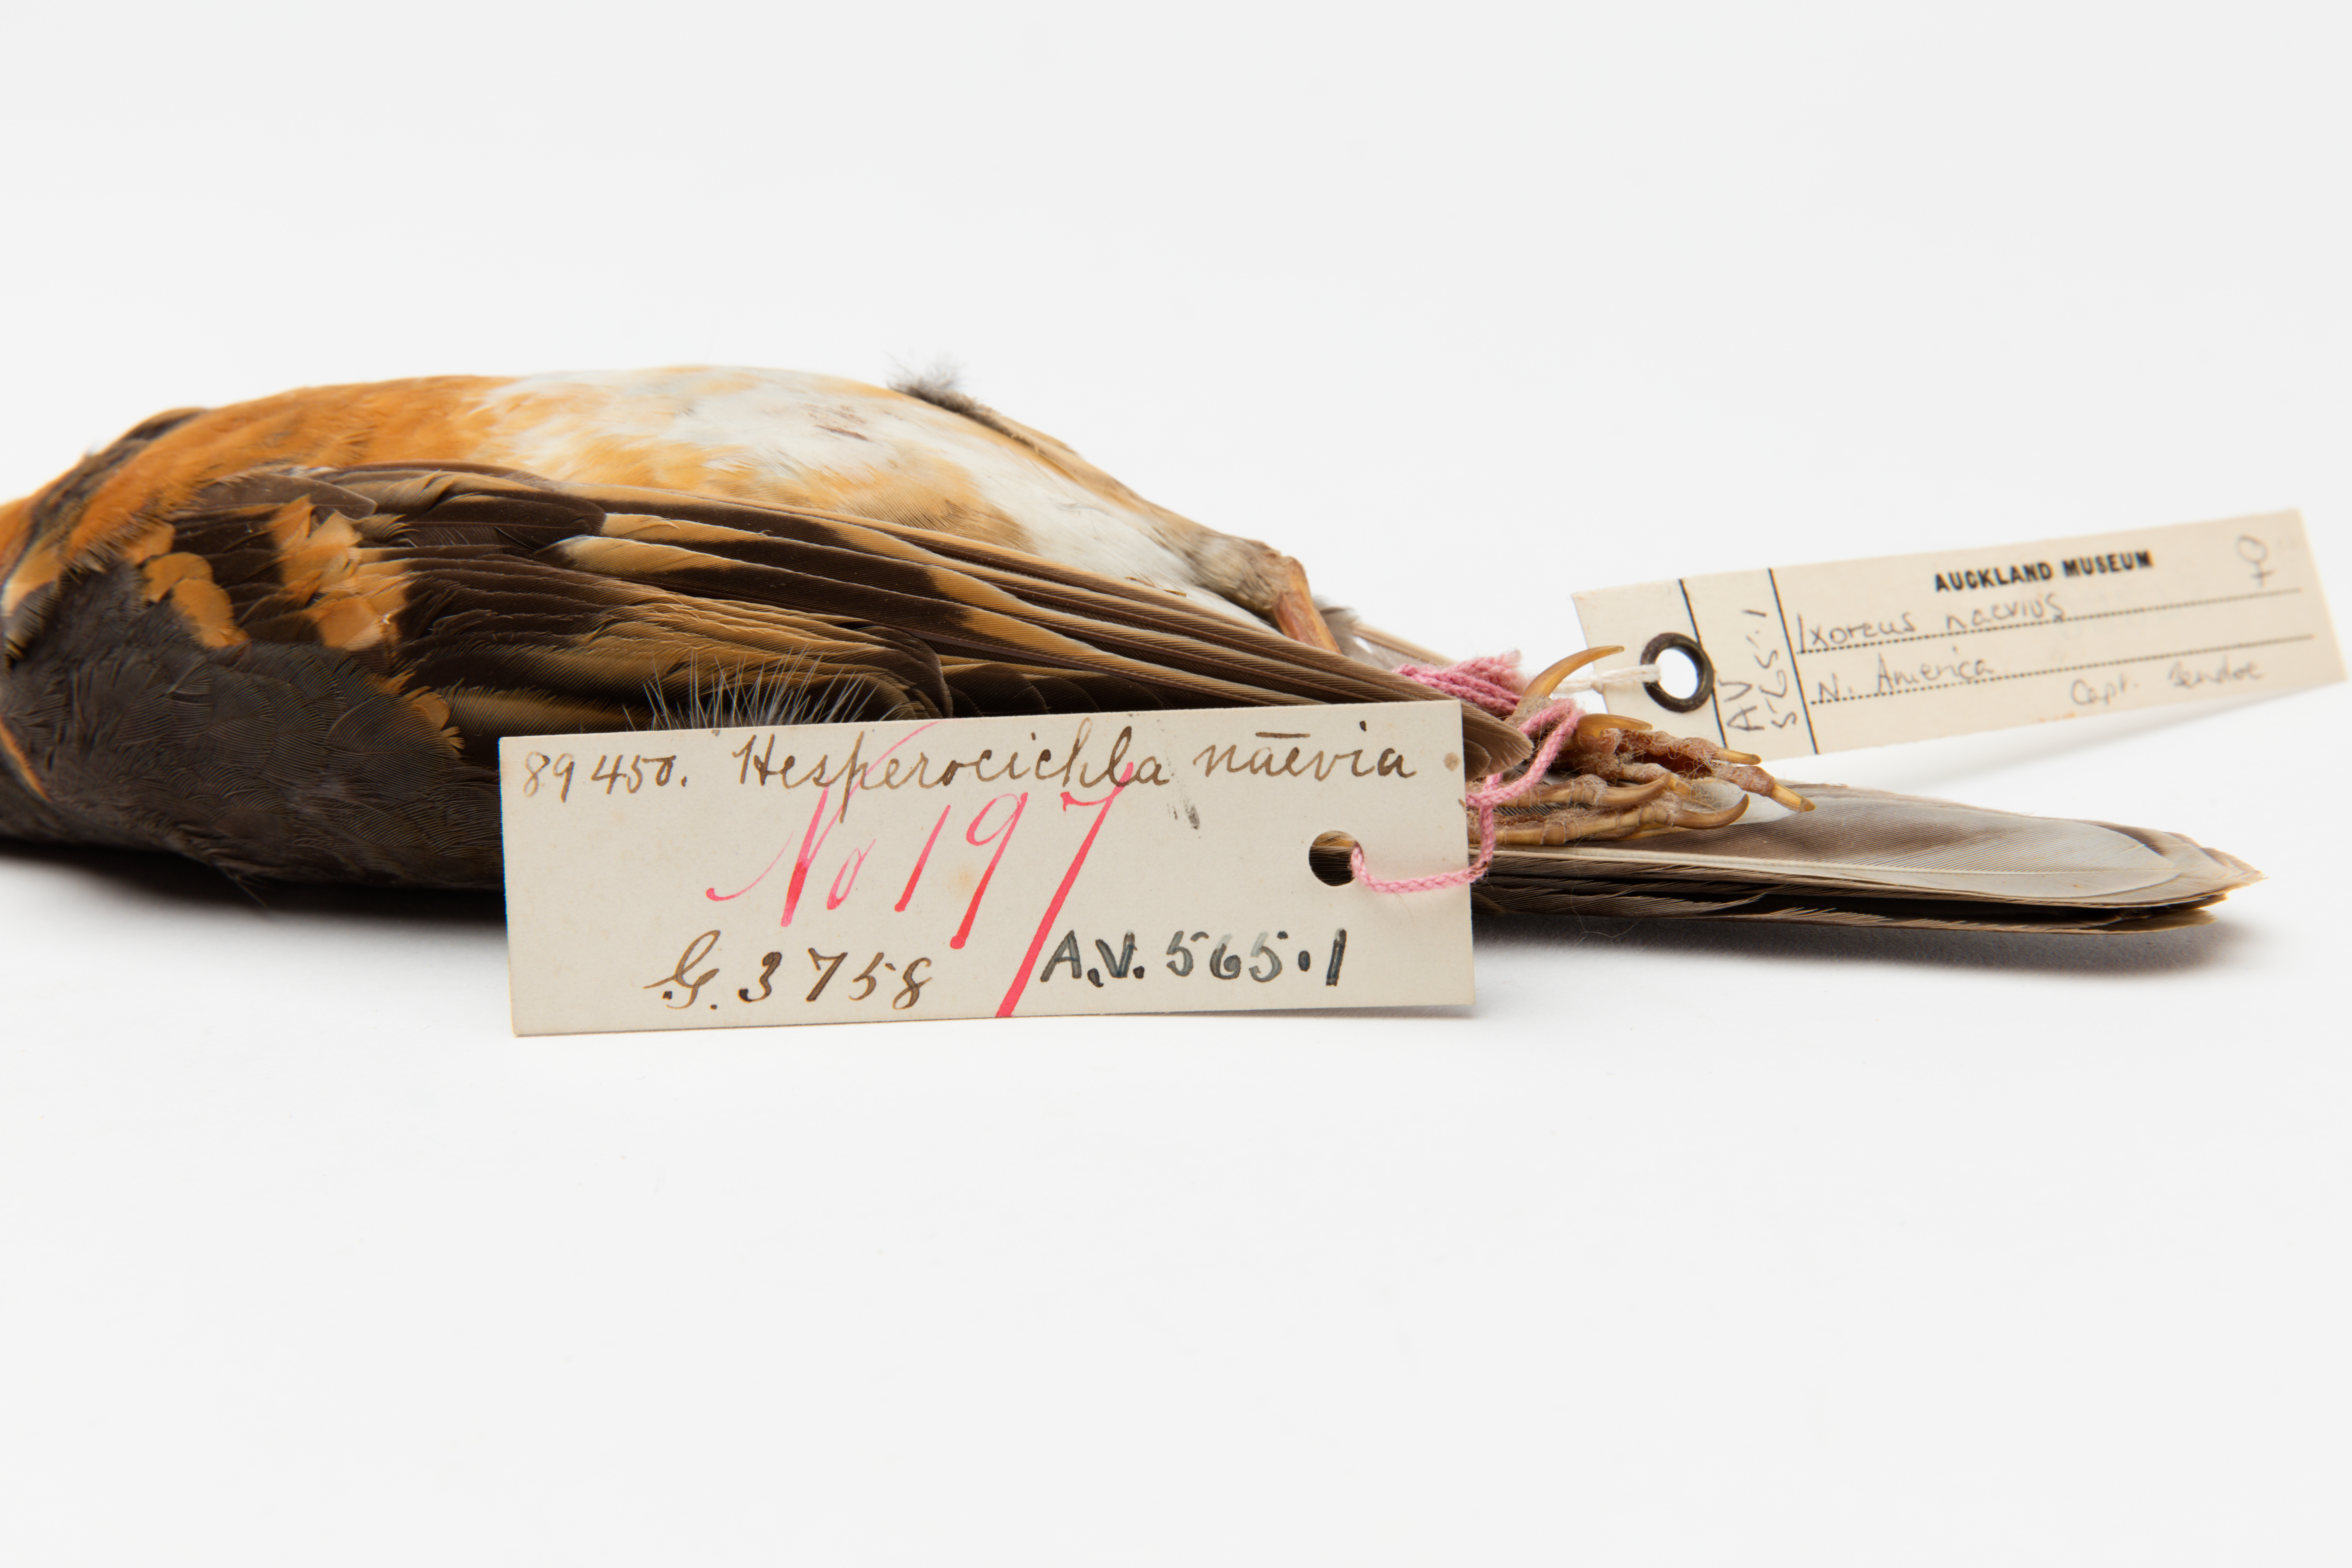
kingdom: Animalia
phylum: Chordata
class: Aves
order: Passeriformes
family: Turdidae
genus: Ixoreus
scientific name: Ixoreus naevius
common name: Varied thrush
